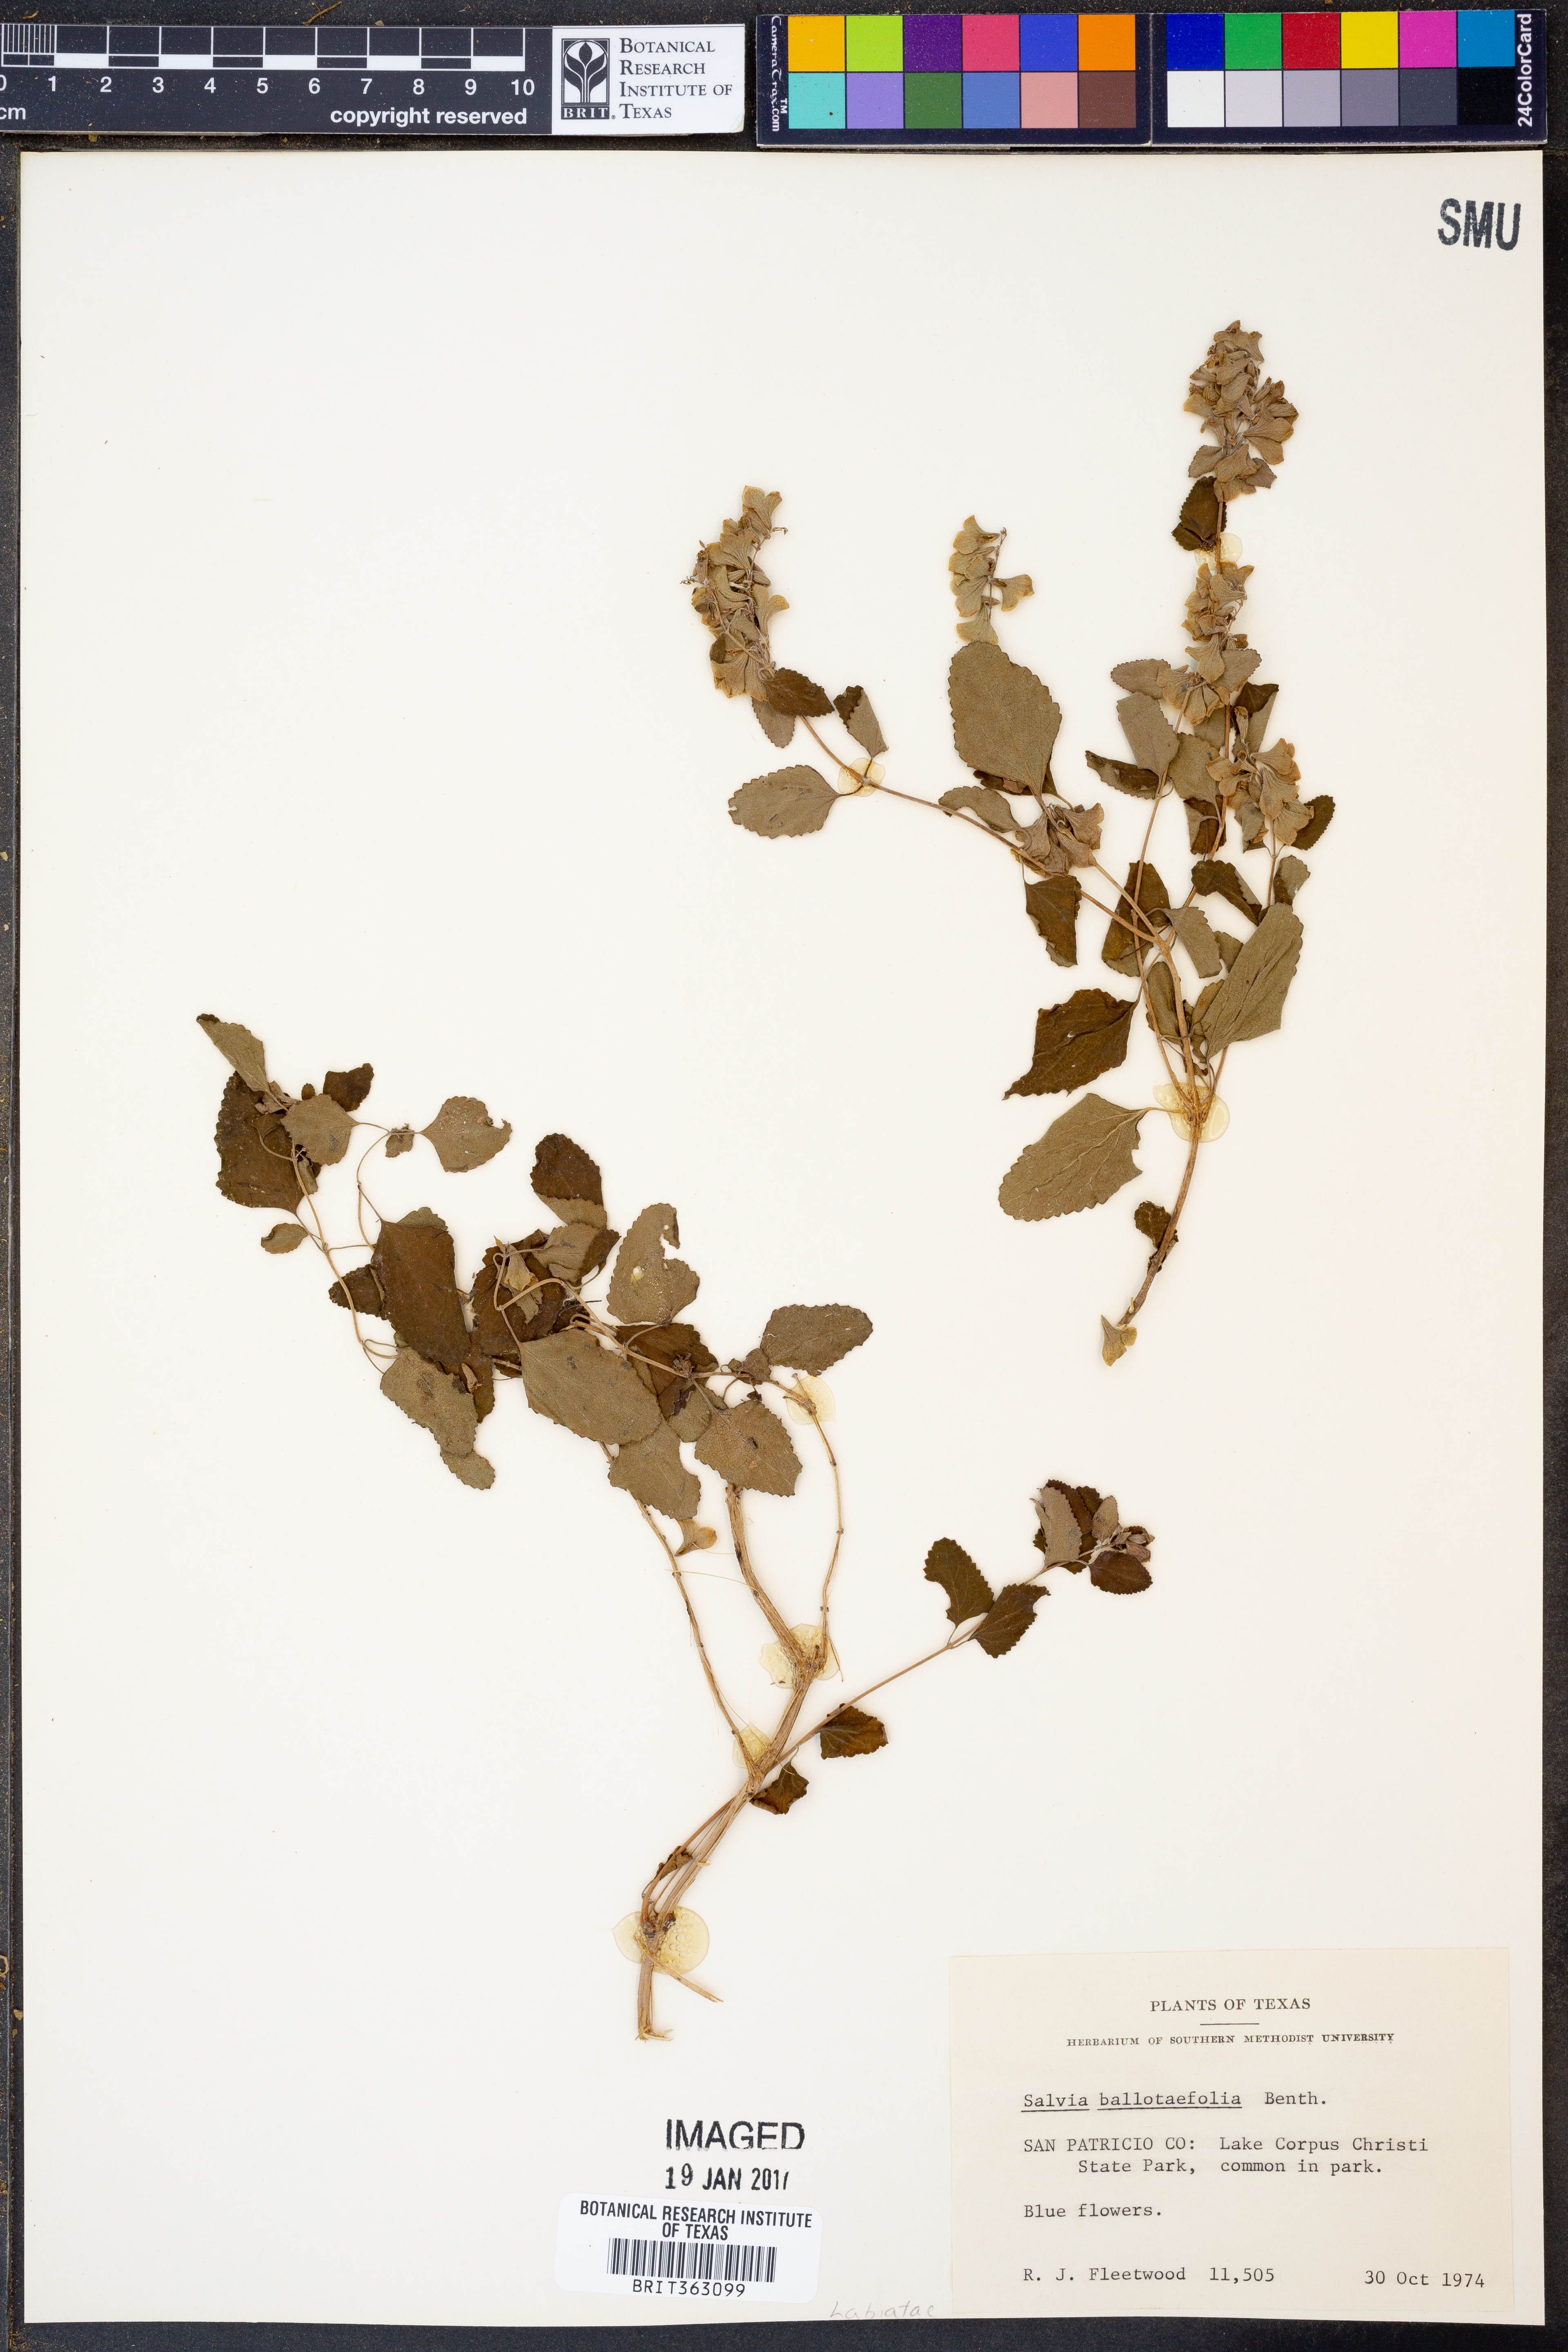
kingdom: Plantae
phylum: Tracheophyta
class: Magnoliopsida
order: Lamiales
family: Lamiaceae
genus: Salvia
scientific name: Salvia ballotiflora
